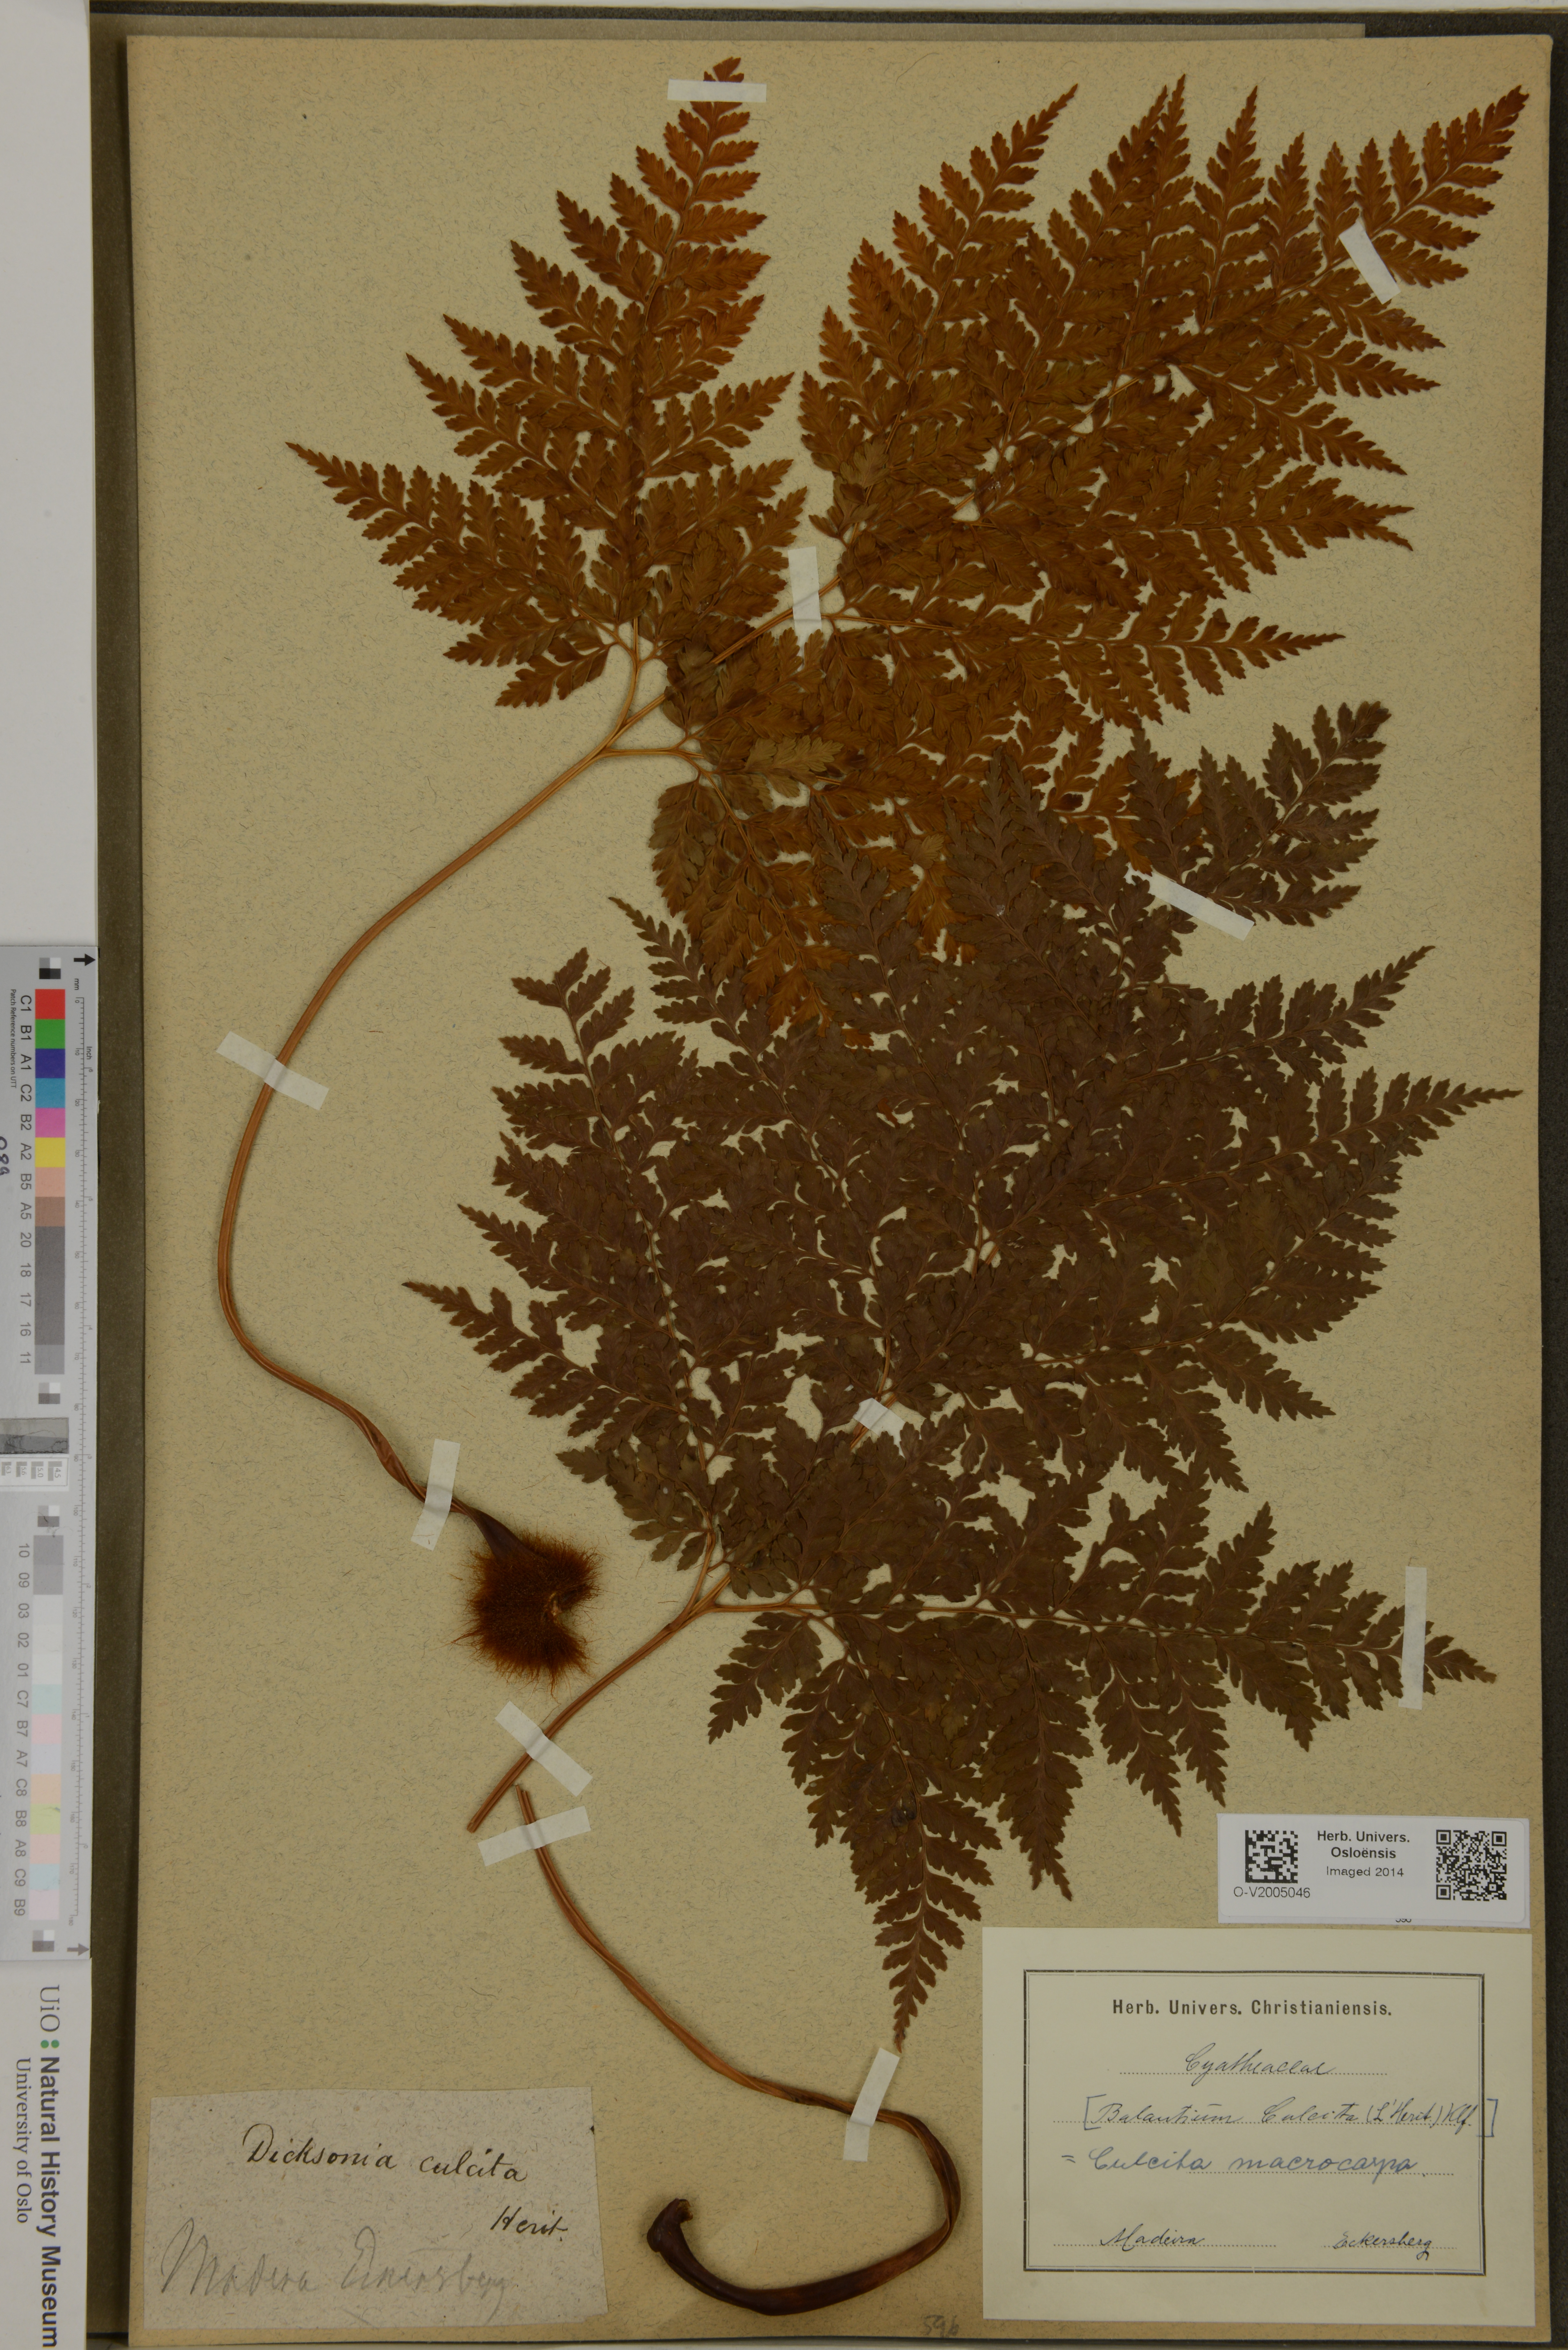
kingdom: Plantae
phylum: Tracheophyta
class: Polypodiopsida
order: Cyatheales
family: Culcitaceae
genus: Culcita
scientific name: Culcita macrocarpa
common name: Woolly tree fern
